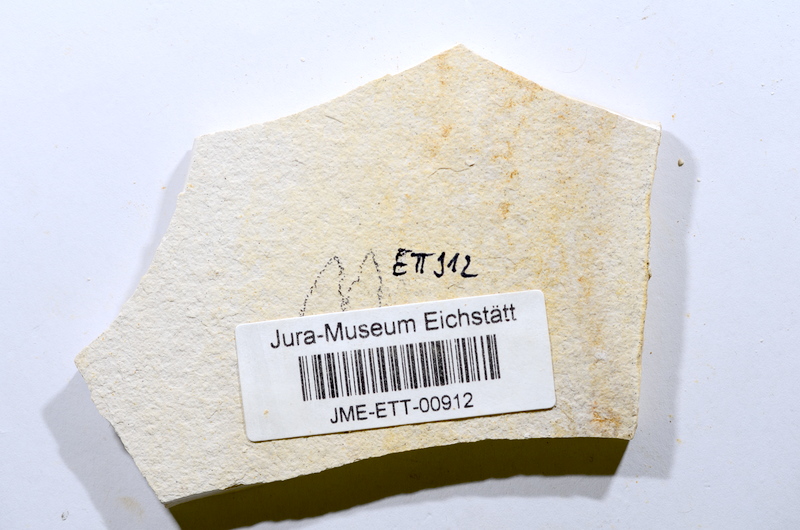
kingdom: Animalia
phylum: Chordata
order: Salmoniformes
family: Orthogonikleithridae
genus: Orthogonikleithrus
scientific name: Orthogonikleithrus hoelli
